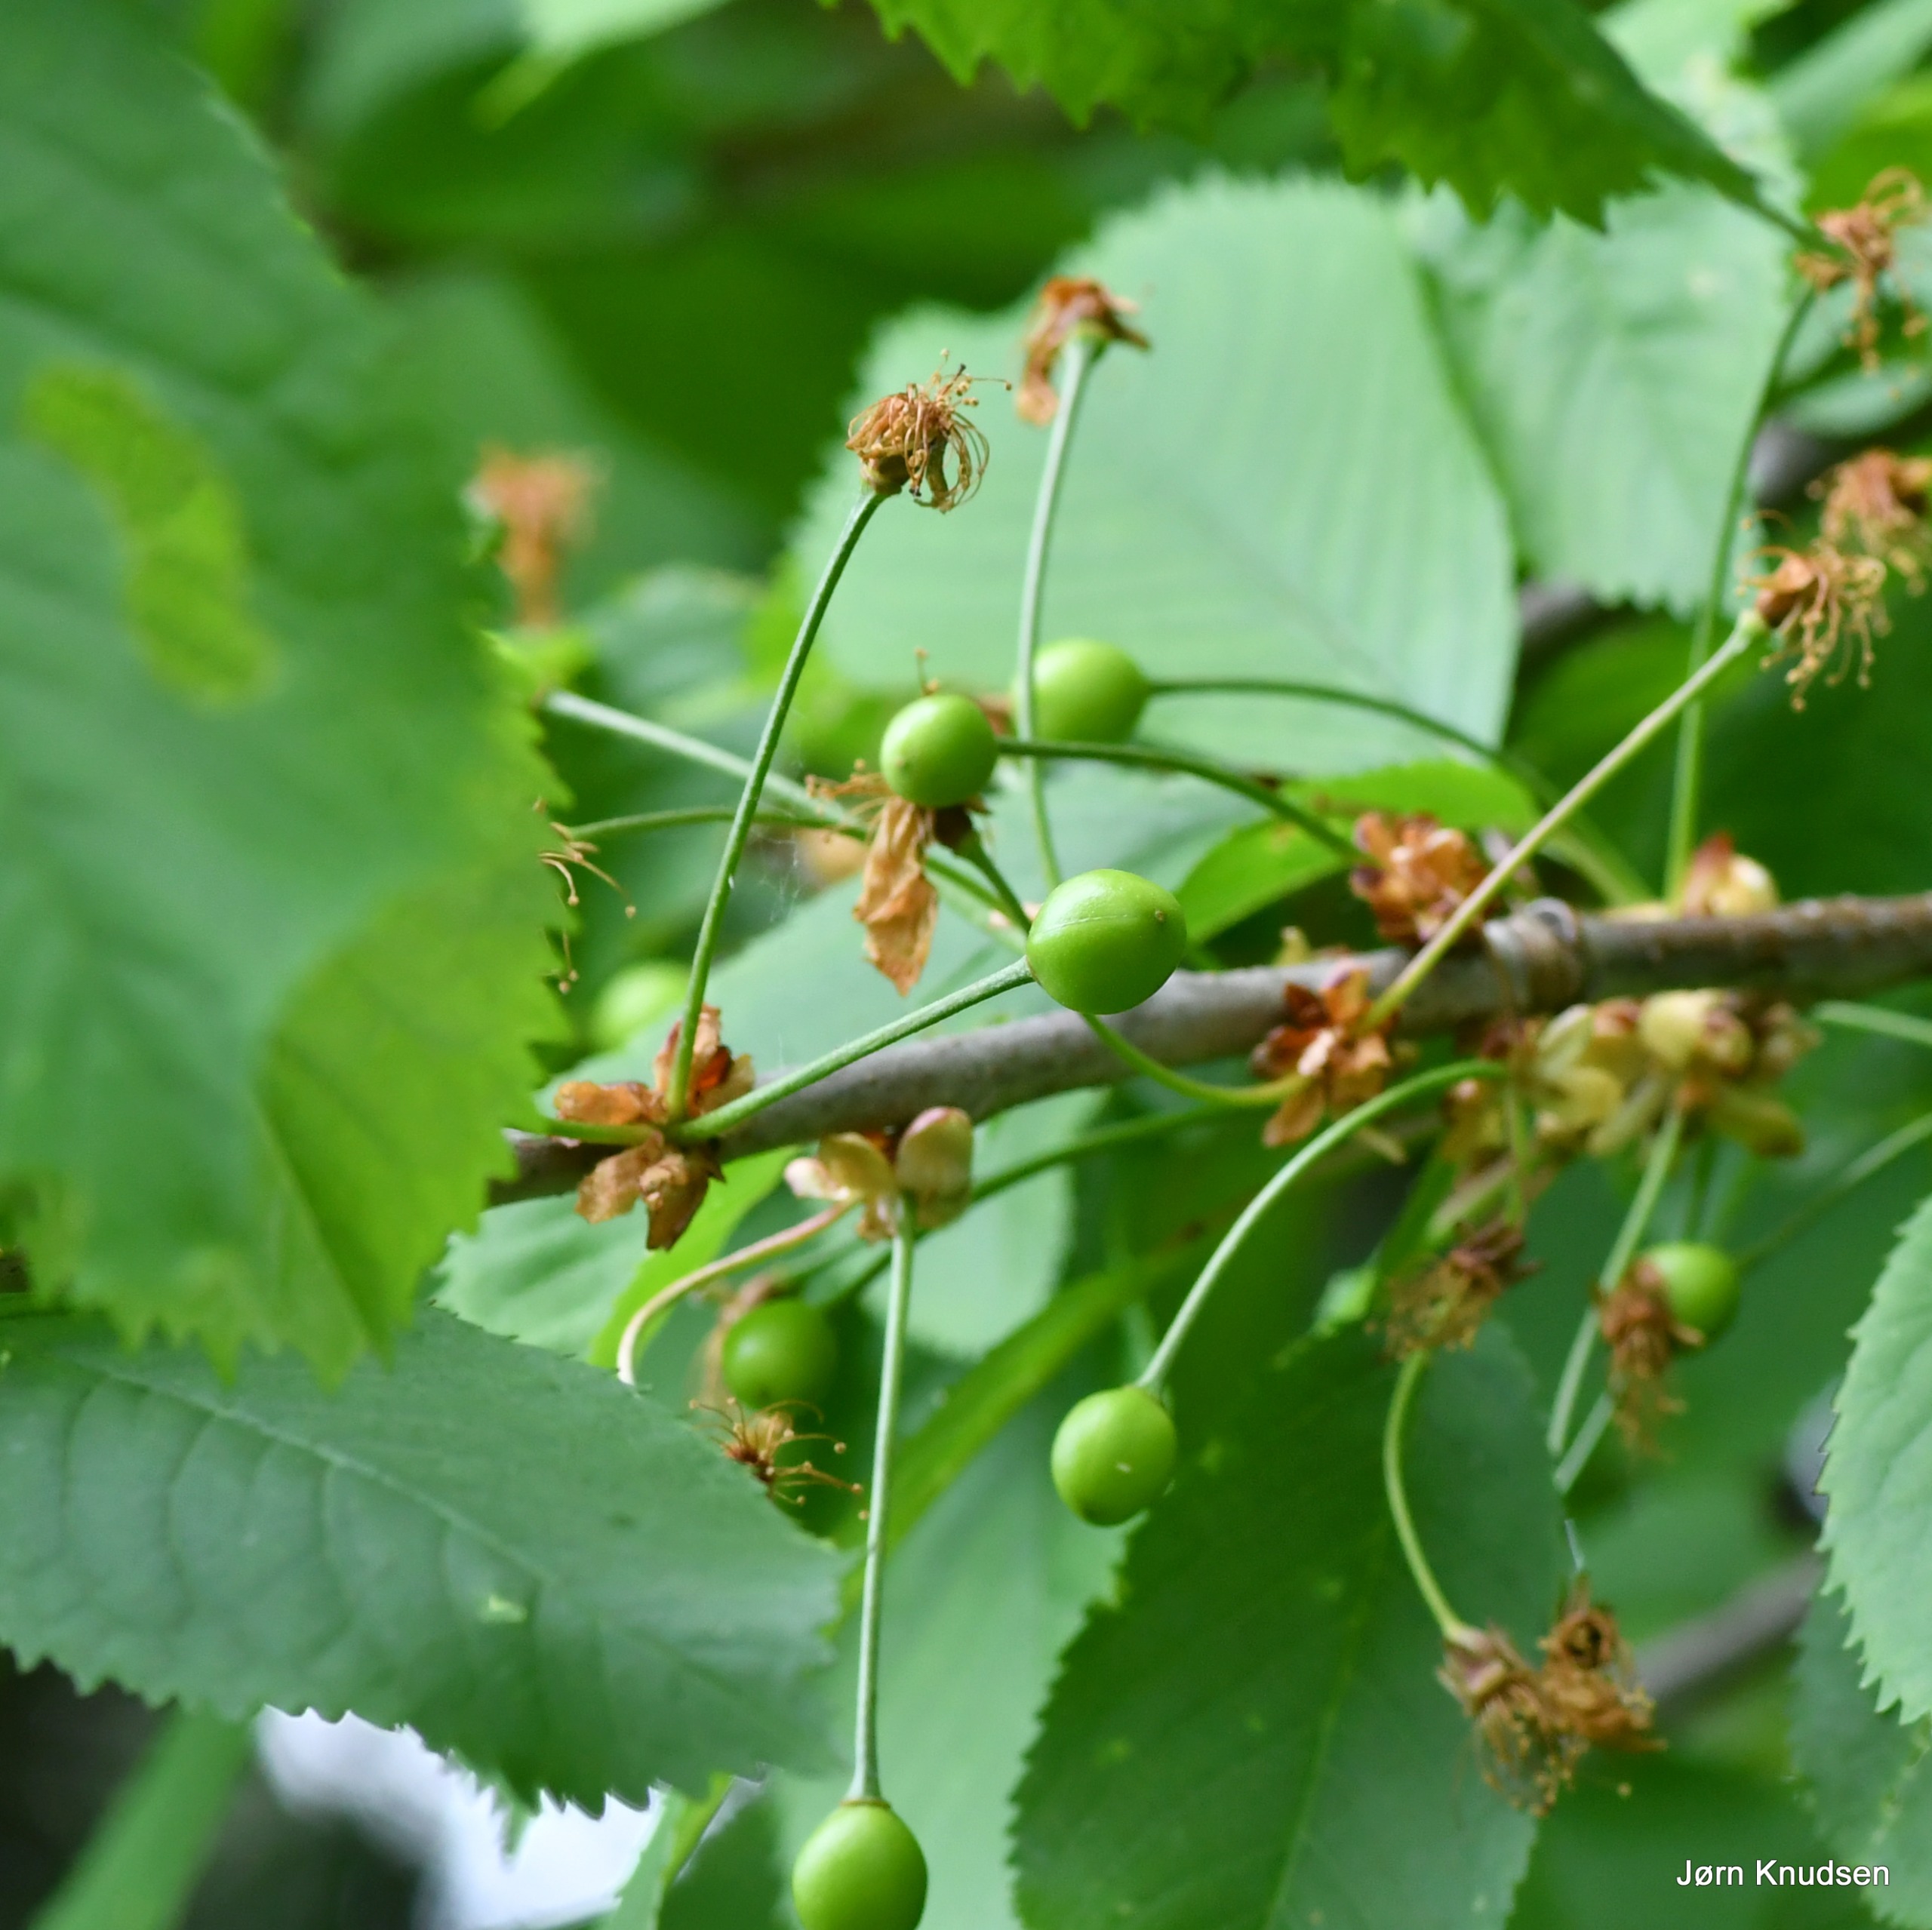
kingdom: Plantae
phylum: Tracheophyta
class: Magnoliopsida
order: Rosales
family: Rosaceae
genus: Prunus
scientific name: Prunus avium
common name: Fugle-kirsebær
